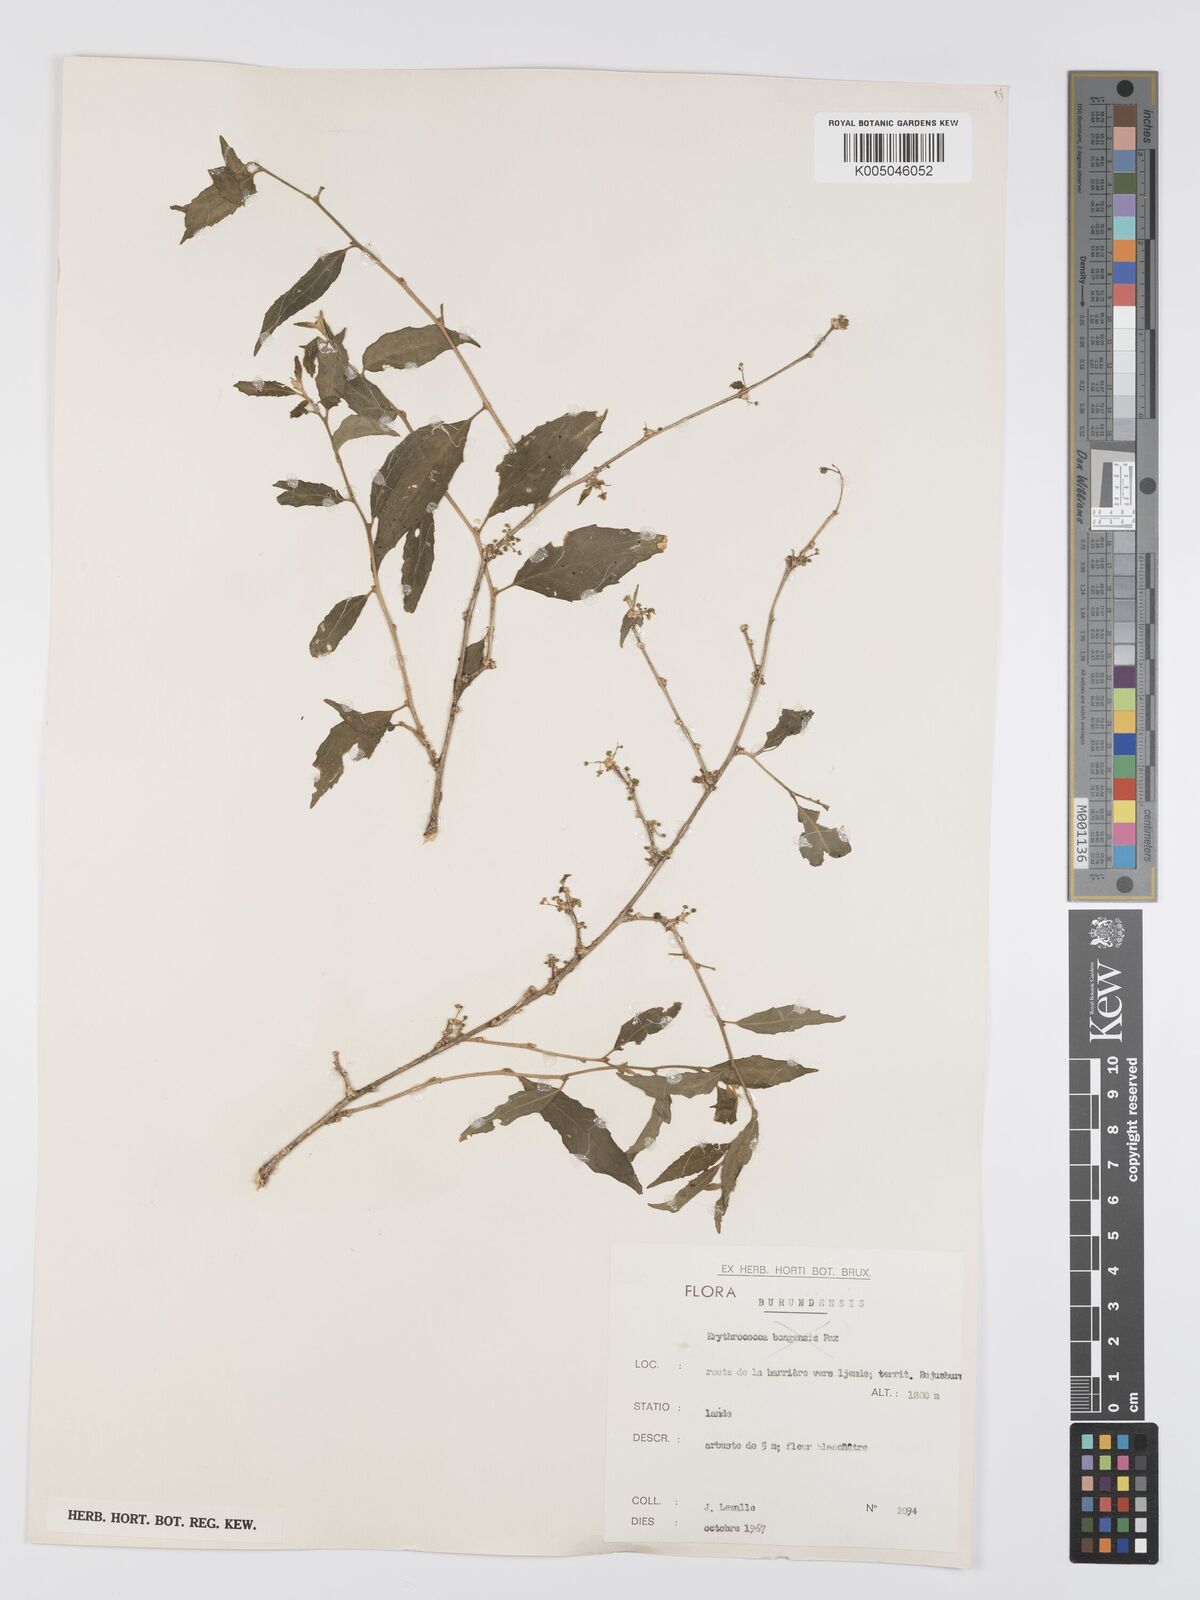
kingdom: Plantae
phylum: Tracheophyta
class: Magnoliopsida
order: Malpighiales
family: Euphorbiaceae
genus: Erythrococca
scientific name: Erythrococca
